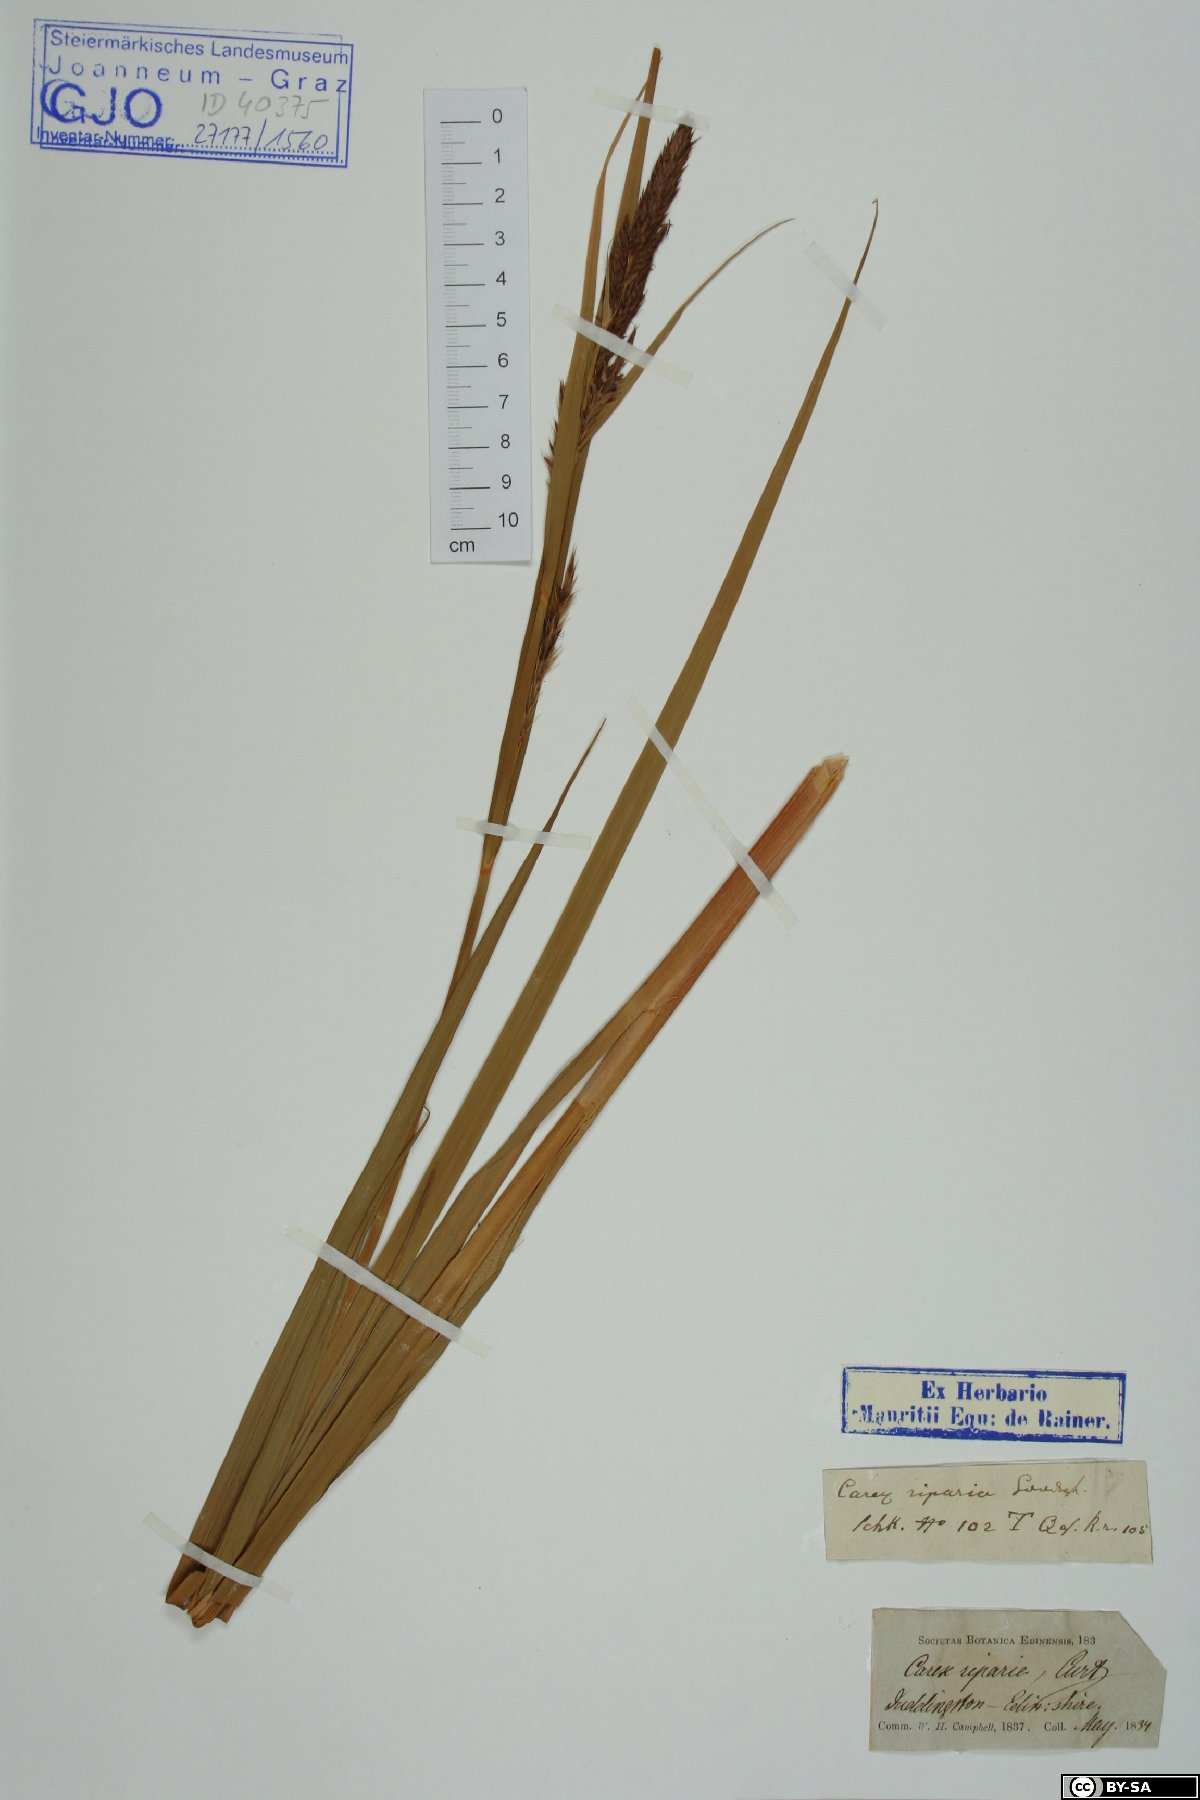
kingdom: Plantae
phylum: Tracheophyta
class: Liliopsida
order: Poales
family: Cyperaceae
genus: Carex
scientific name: Carex riparia
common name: Greater pond-sedge
